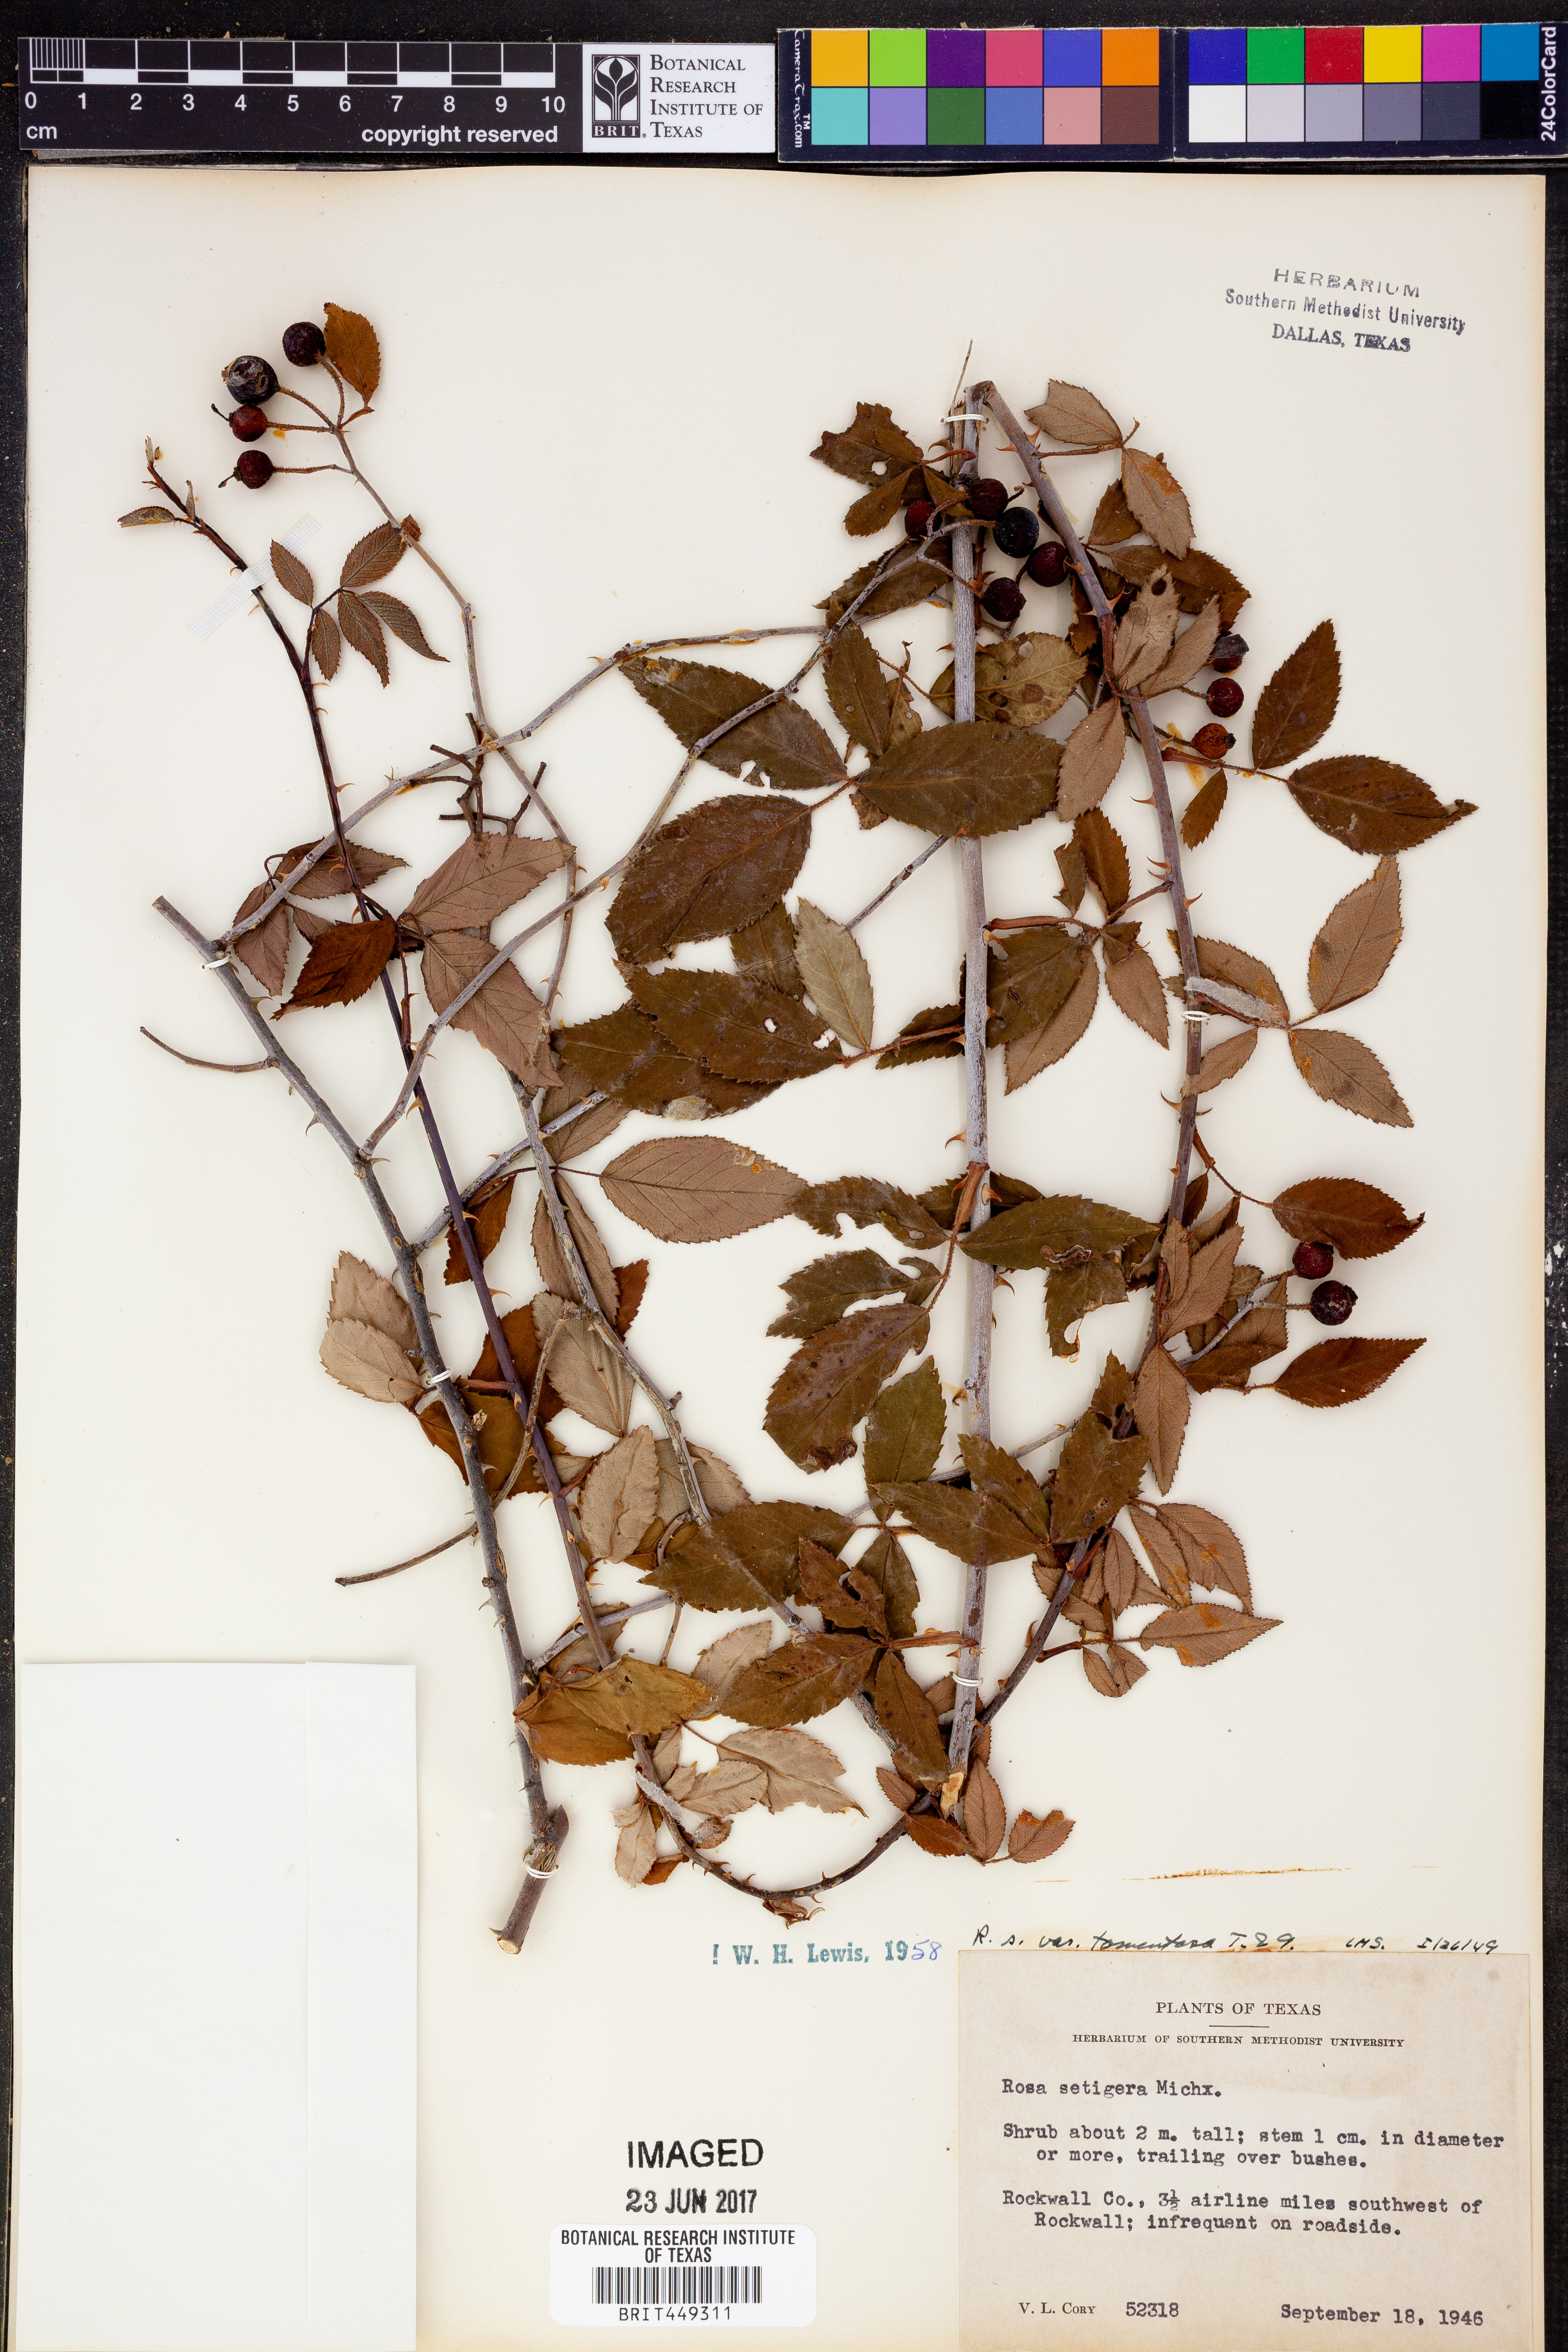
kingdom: Plantae
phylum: Tracheophyta
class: Magnoliopsida
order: Rosales
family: Rosaceae
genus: Rosa
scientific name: Rosa setigera
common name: Prairie rose
